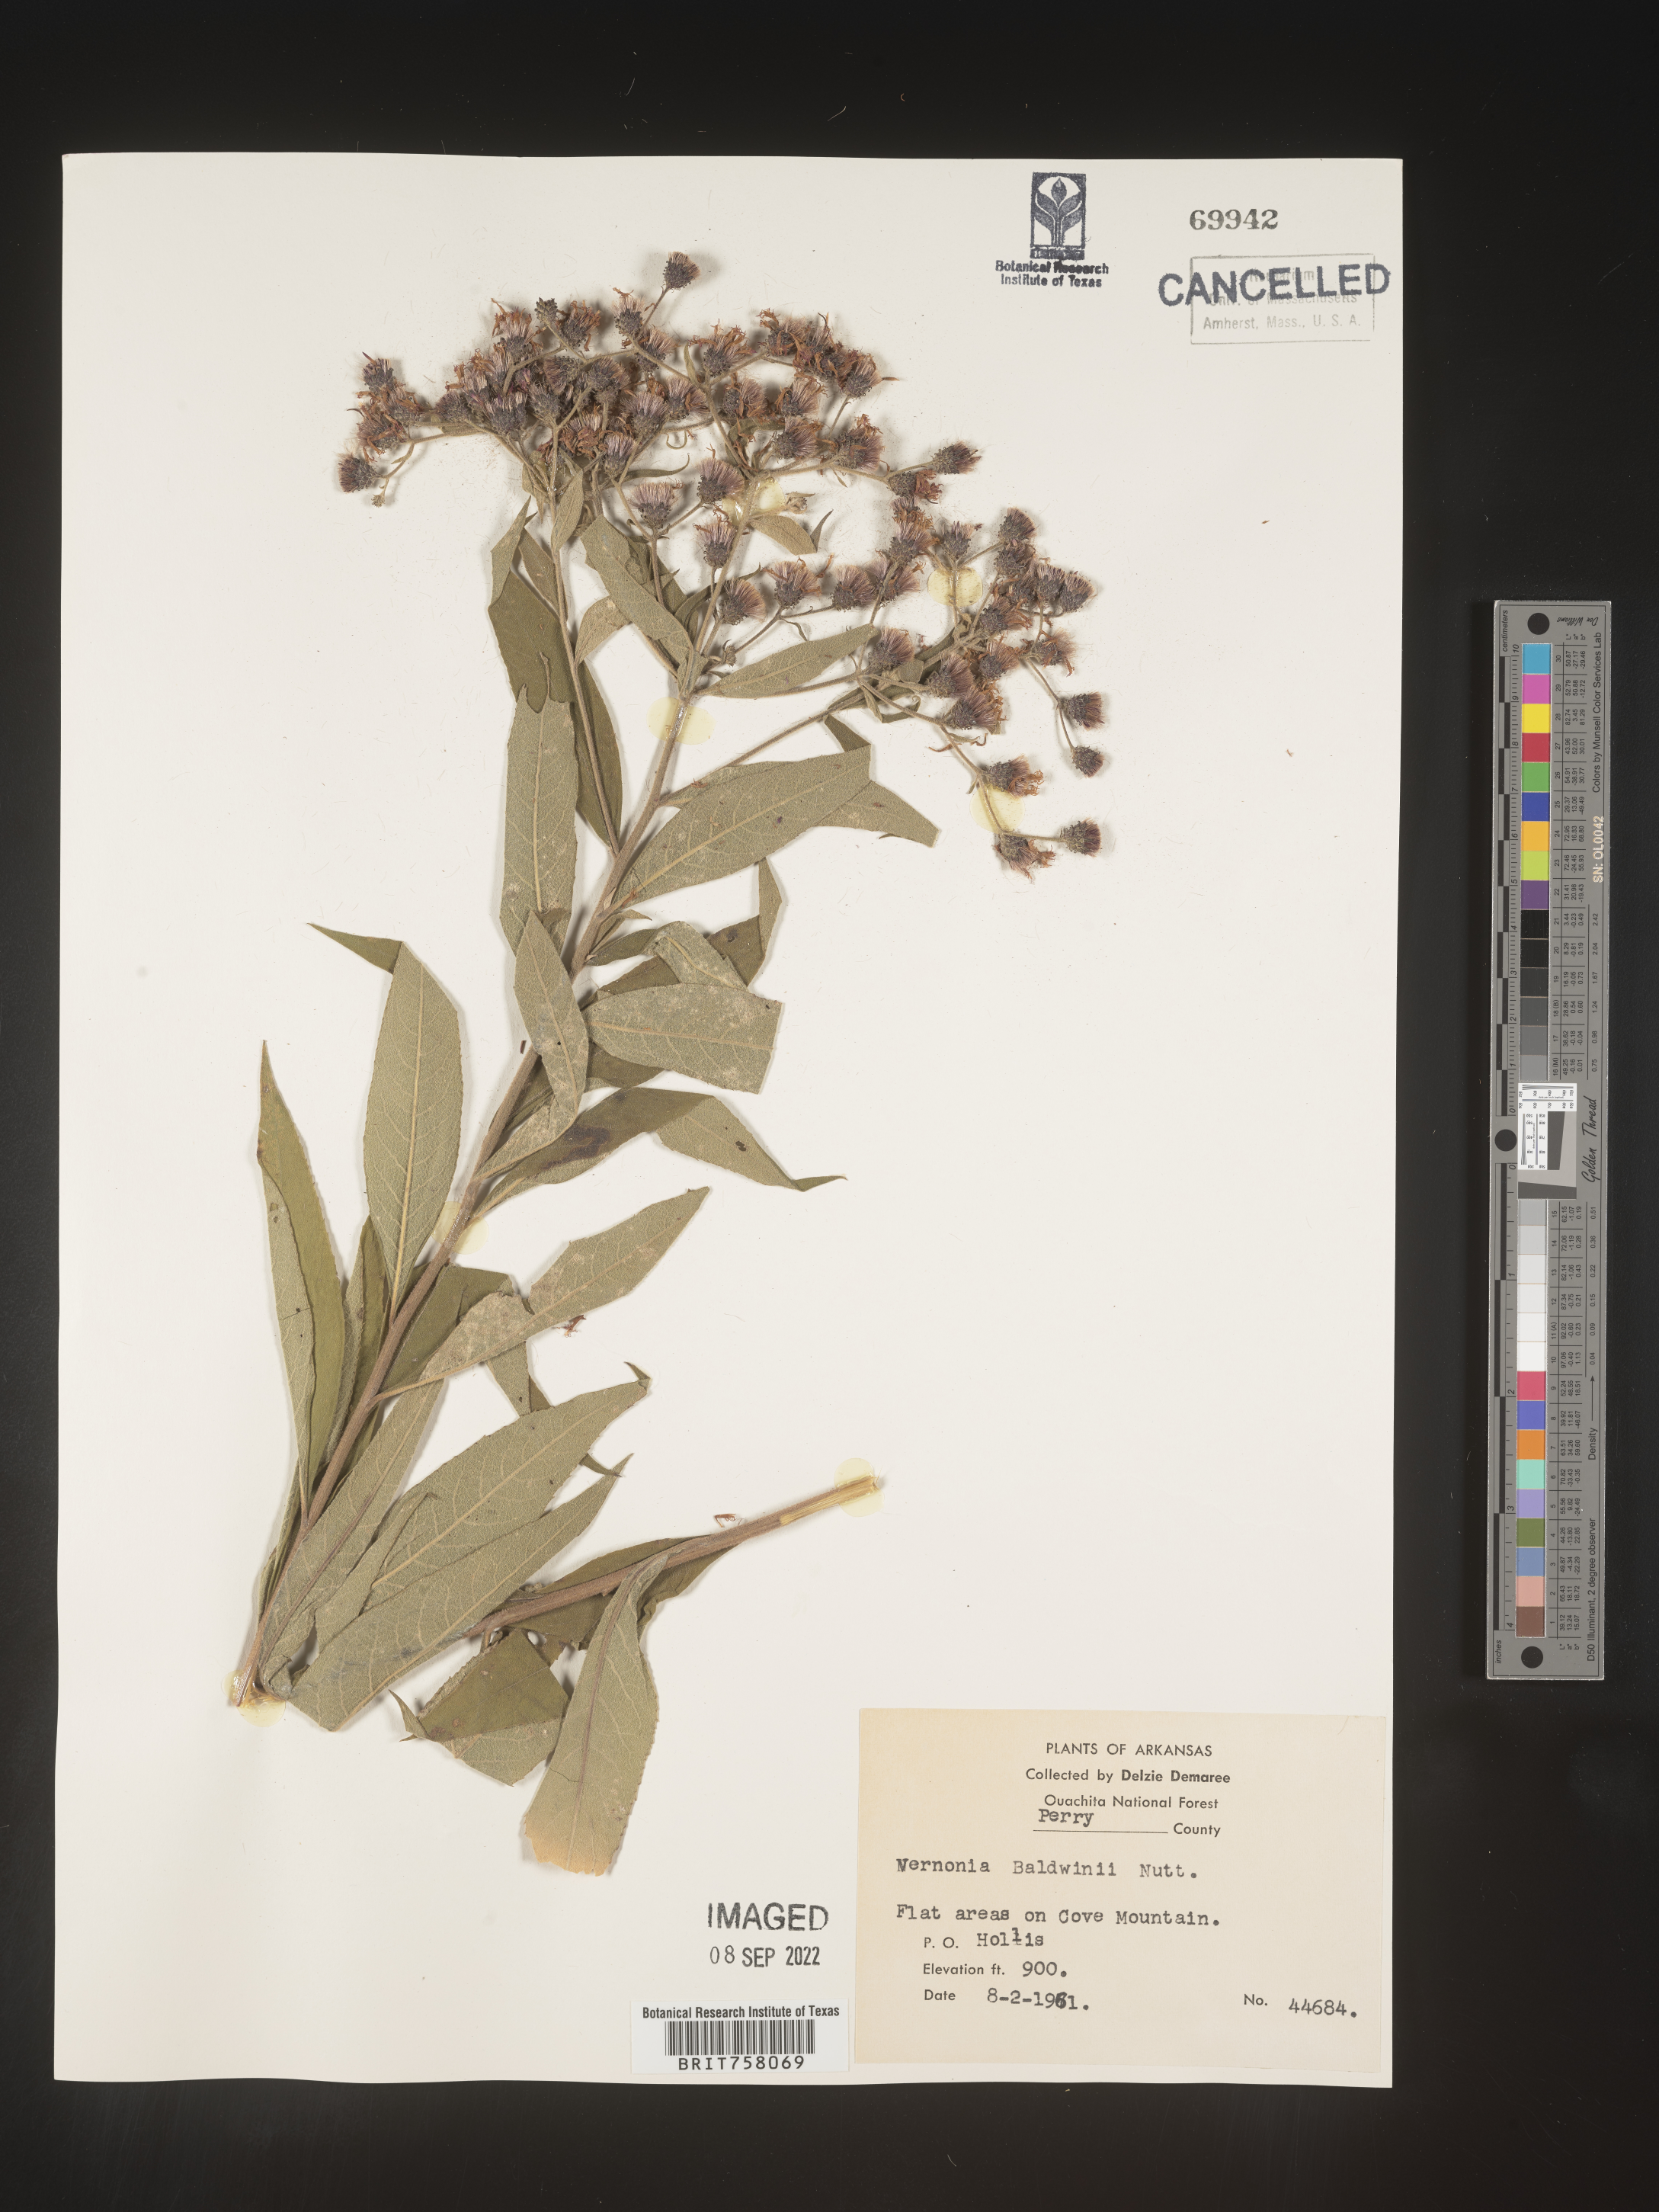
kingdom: Plantae
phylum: Tracheophyta
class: Magnoliopsida
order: Asterales
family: Asteraceae
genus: Vernonia
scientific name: Vernonia baldwinii
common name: Western ironweed
